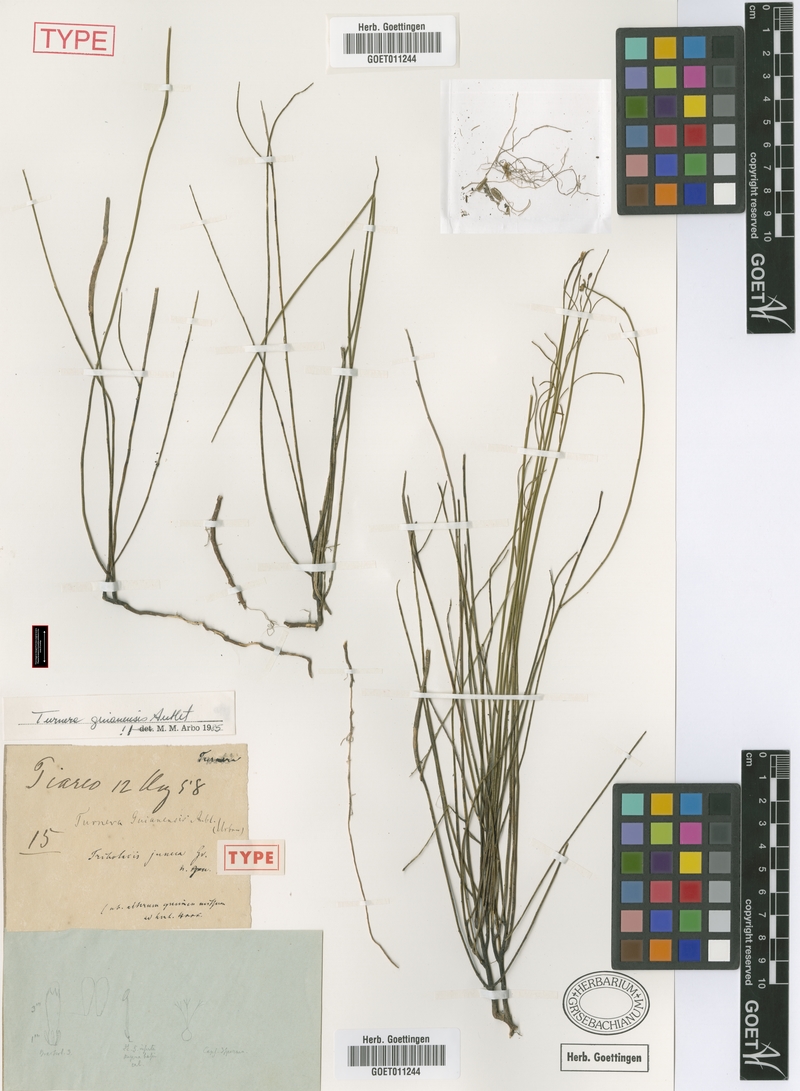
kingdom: Plantae
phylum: Tracheophyta
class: Magnoliopsida
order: Malpighiales
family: Turneraceae
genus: Turnera
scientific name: Turnera guianensis
